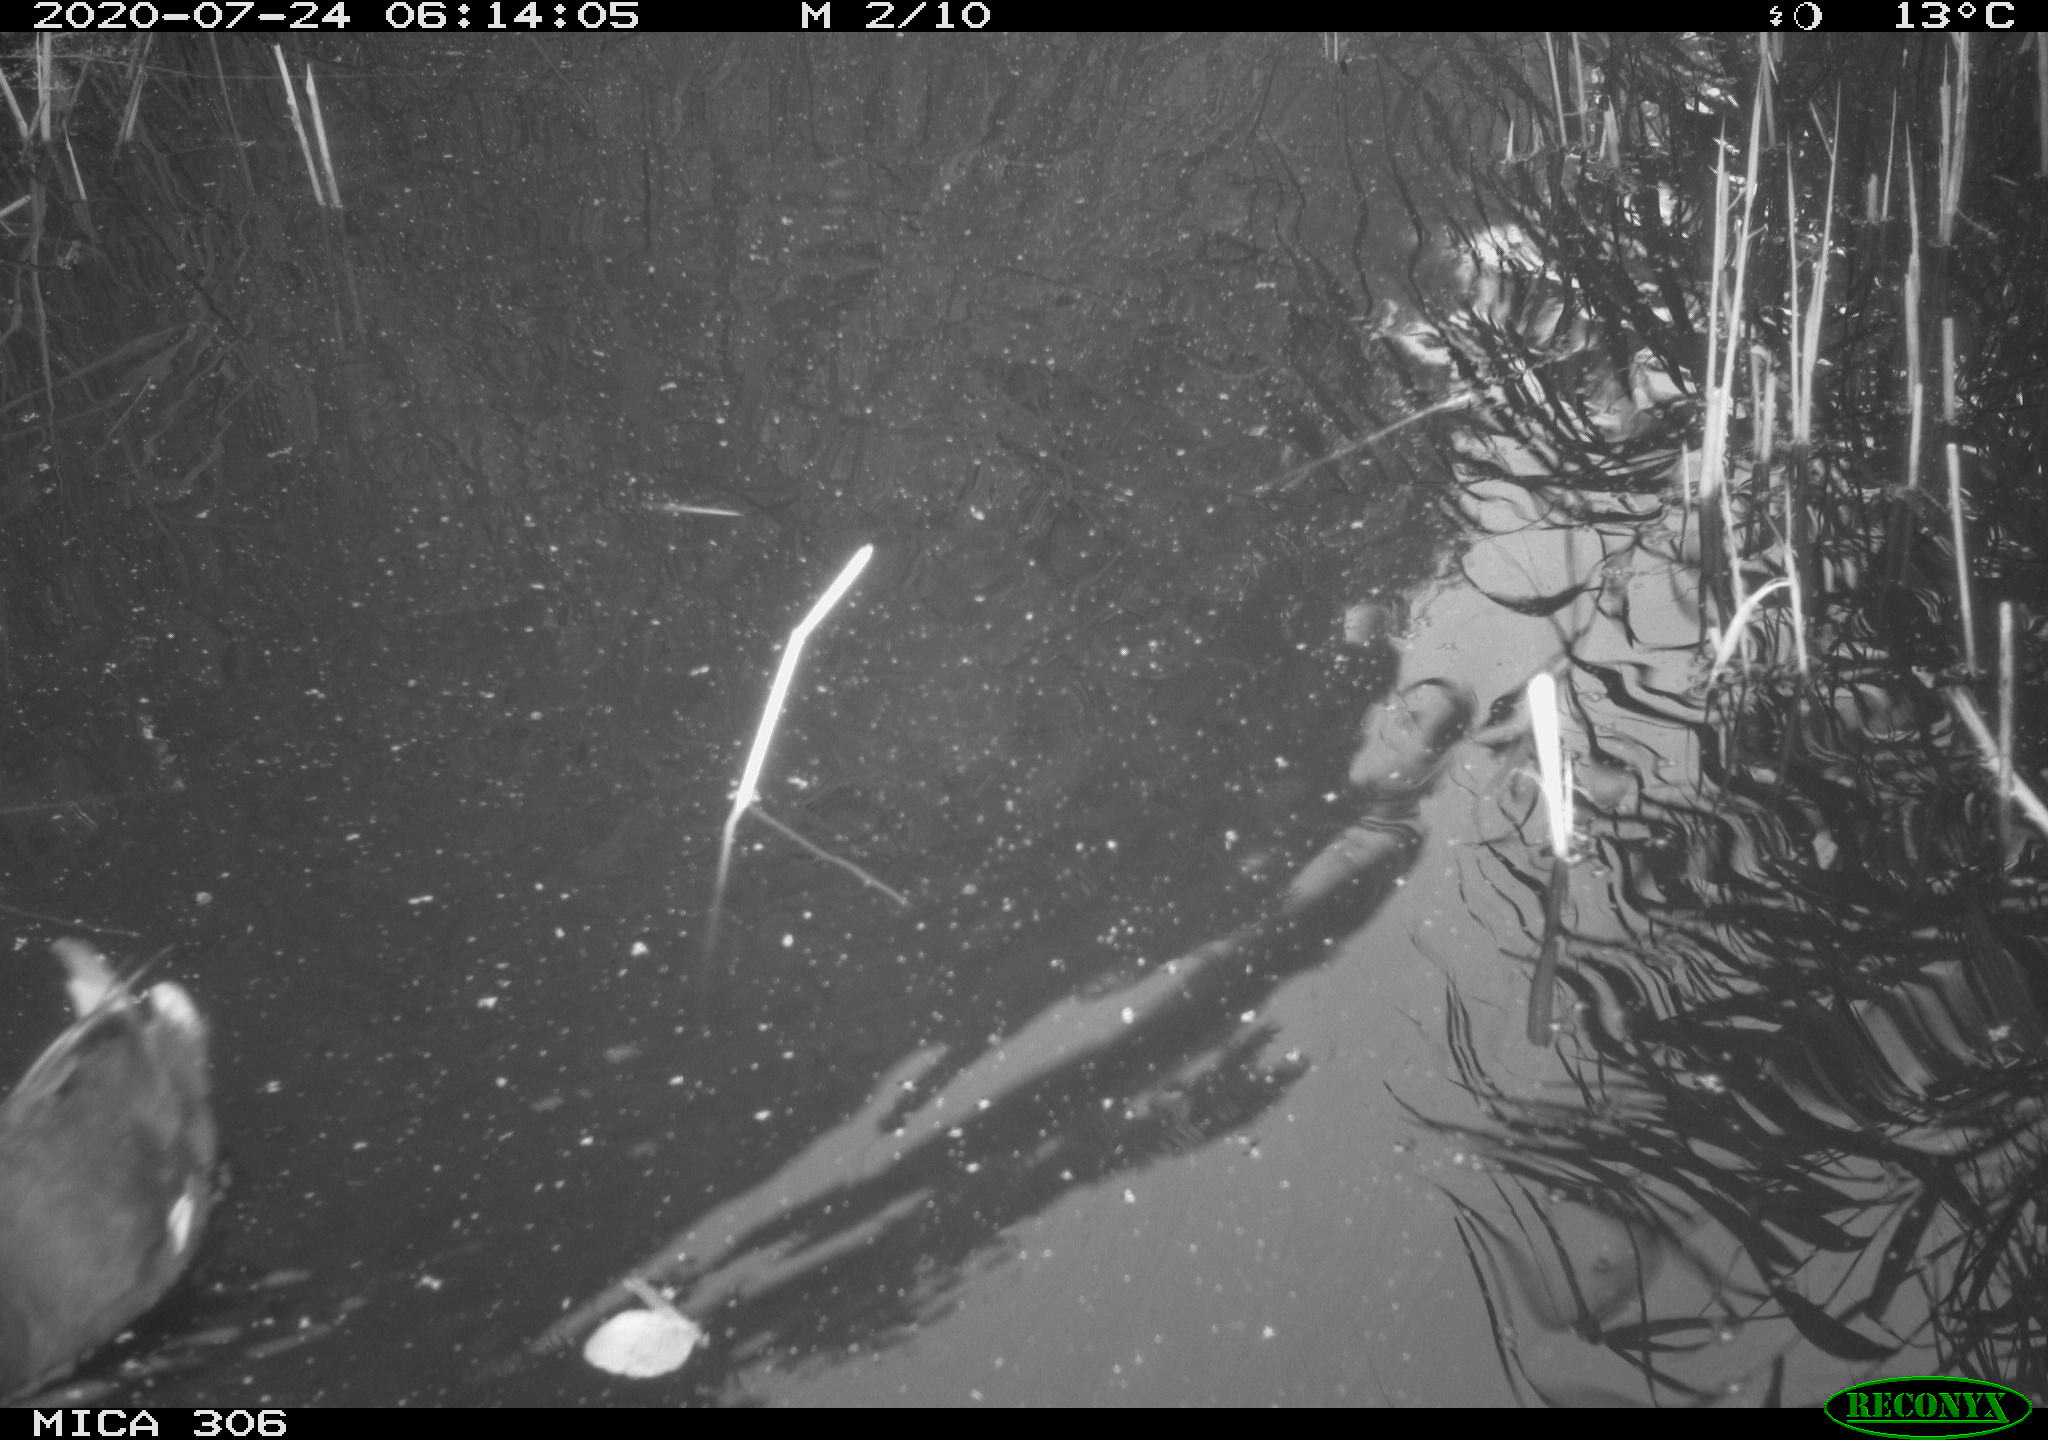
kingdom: Animalia
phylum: Chordata
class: Aves
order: Gruiformes
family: Rallidae
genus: Fulica
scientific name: Fulica atra
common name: Eurasian coot
